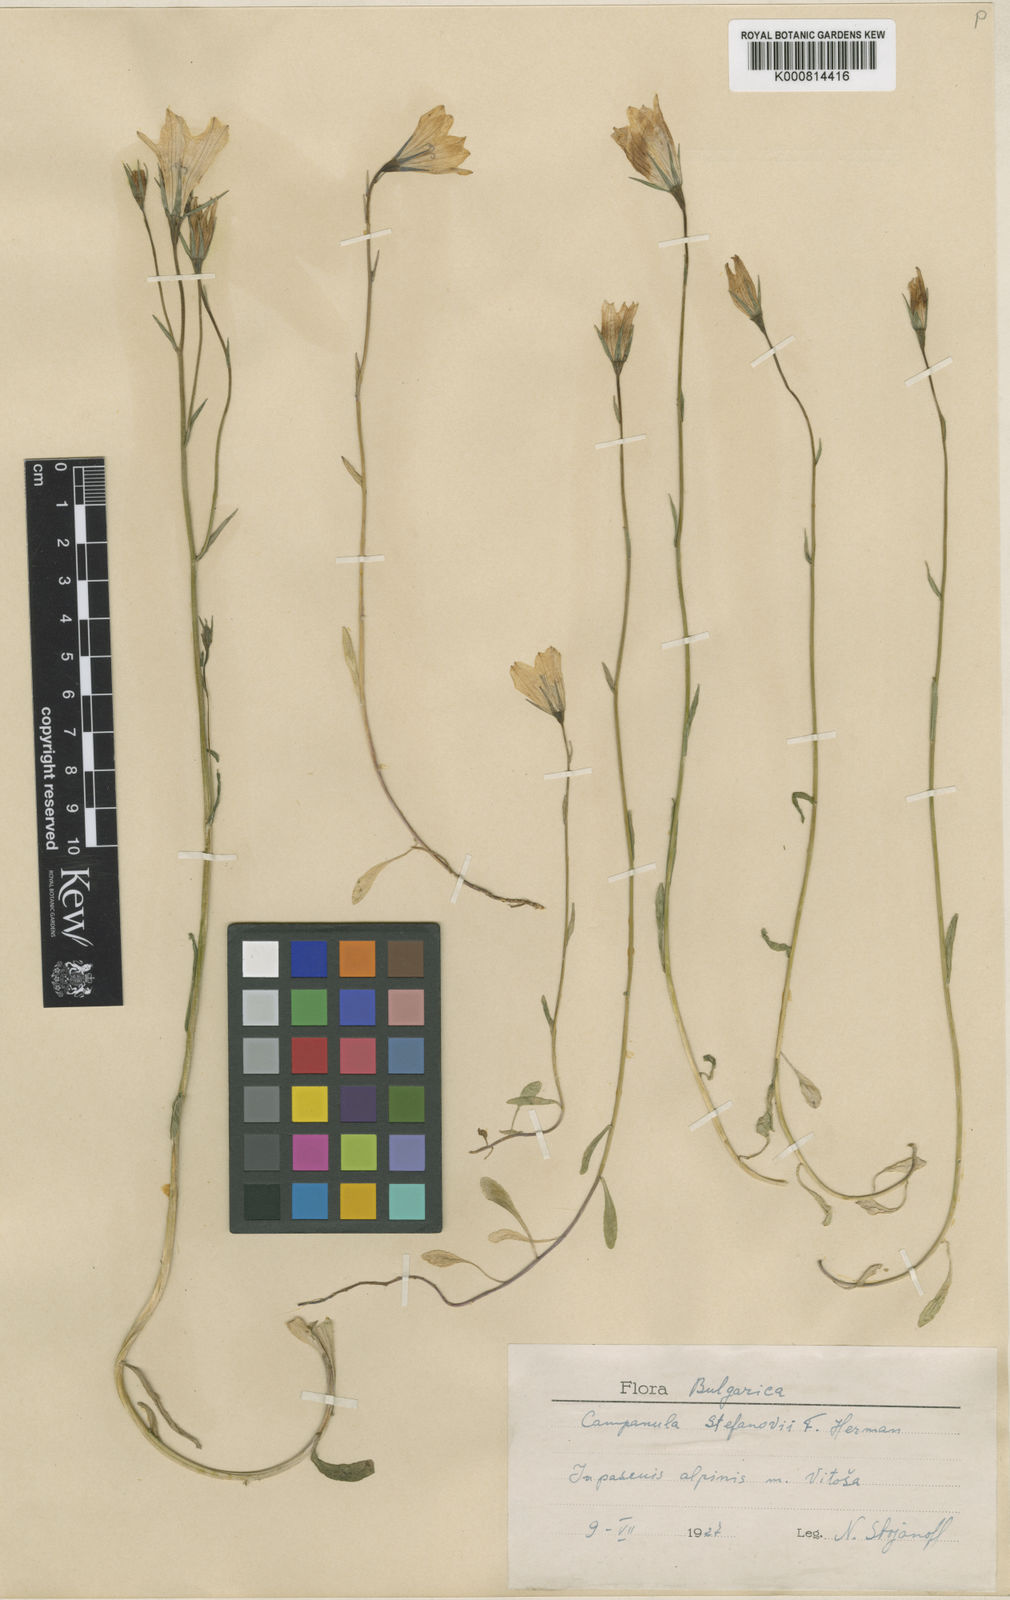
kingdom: Plantae
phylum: Tracheophyta
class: Magnoliopsida
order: Asterales
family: Campanulaceae
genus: Campanula
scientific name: Campanula patula
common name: Spreading bellflower
